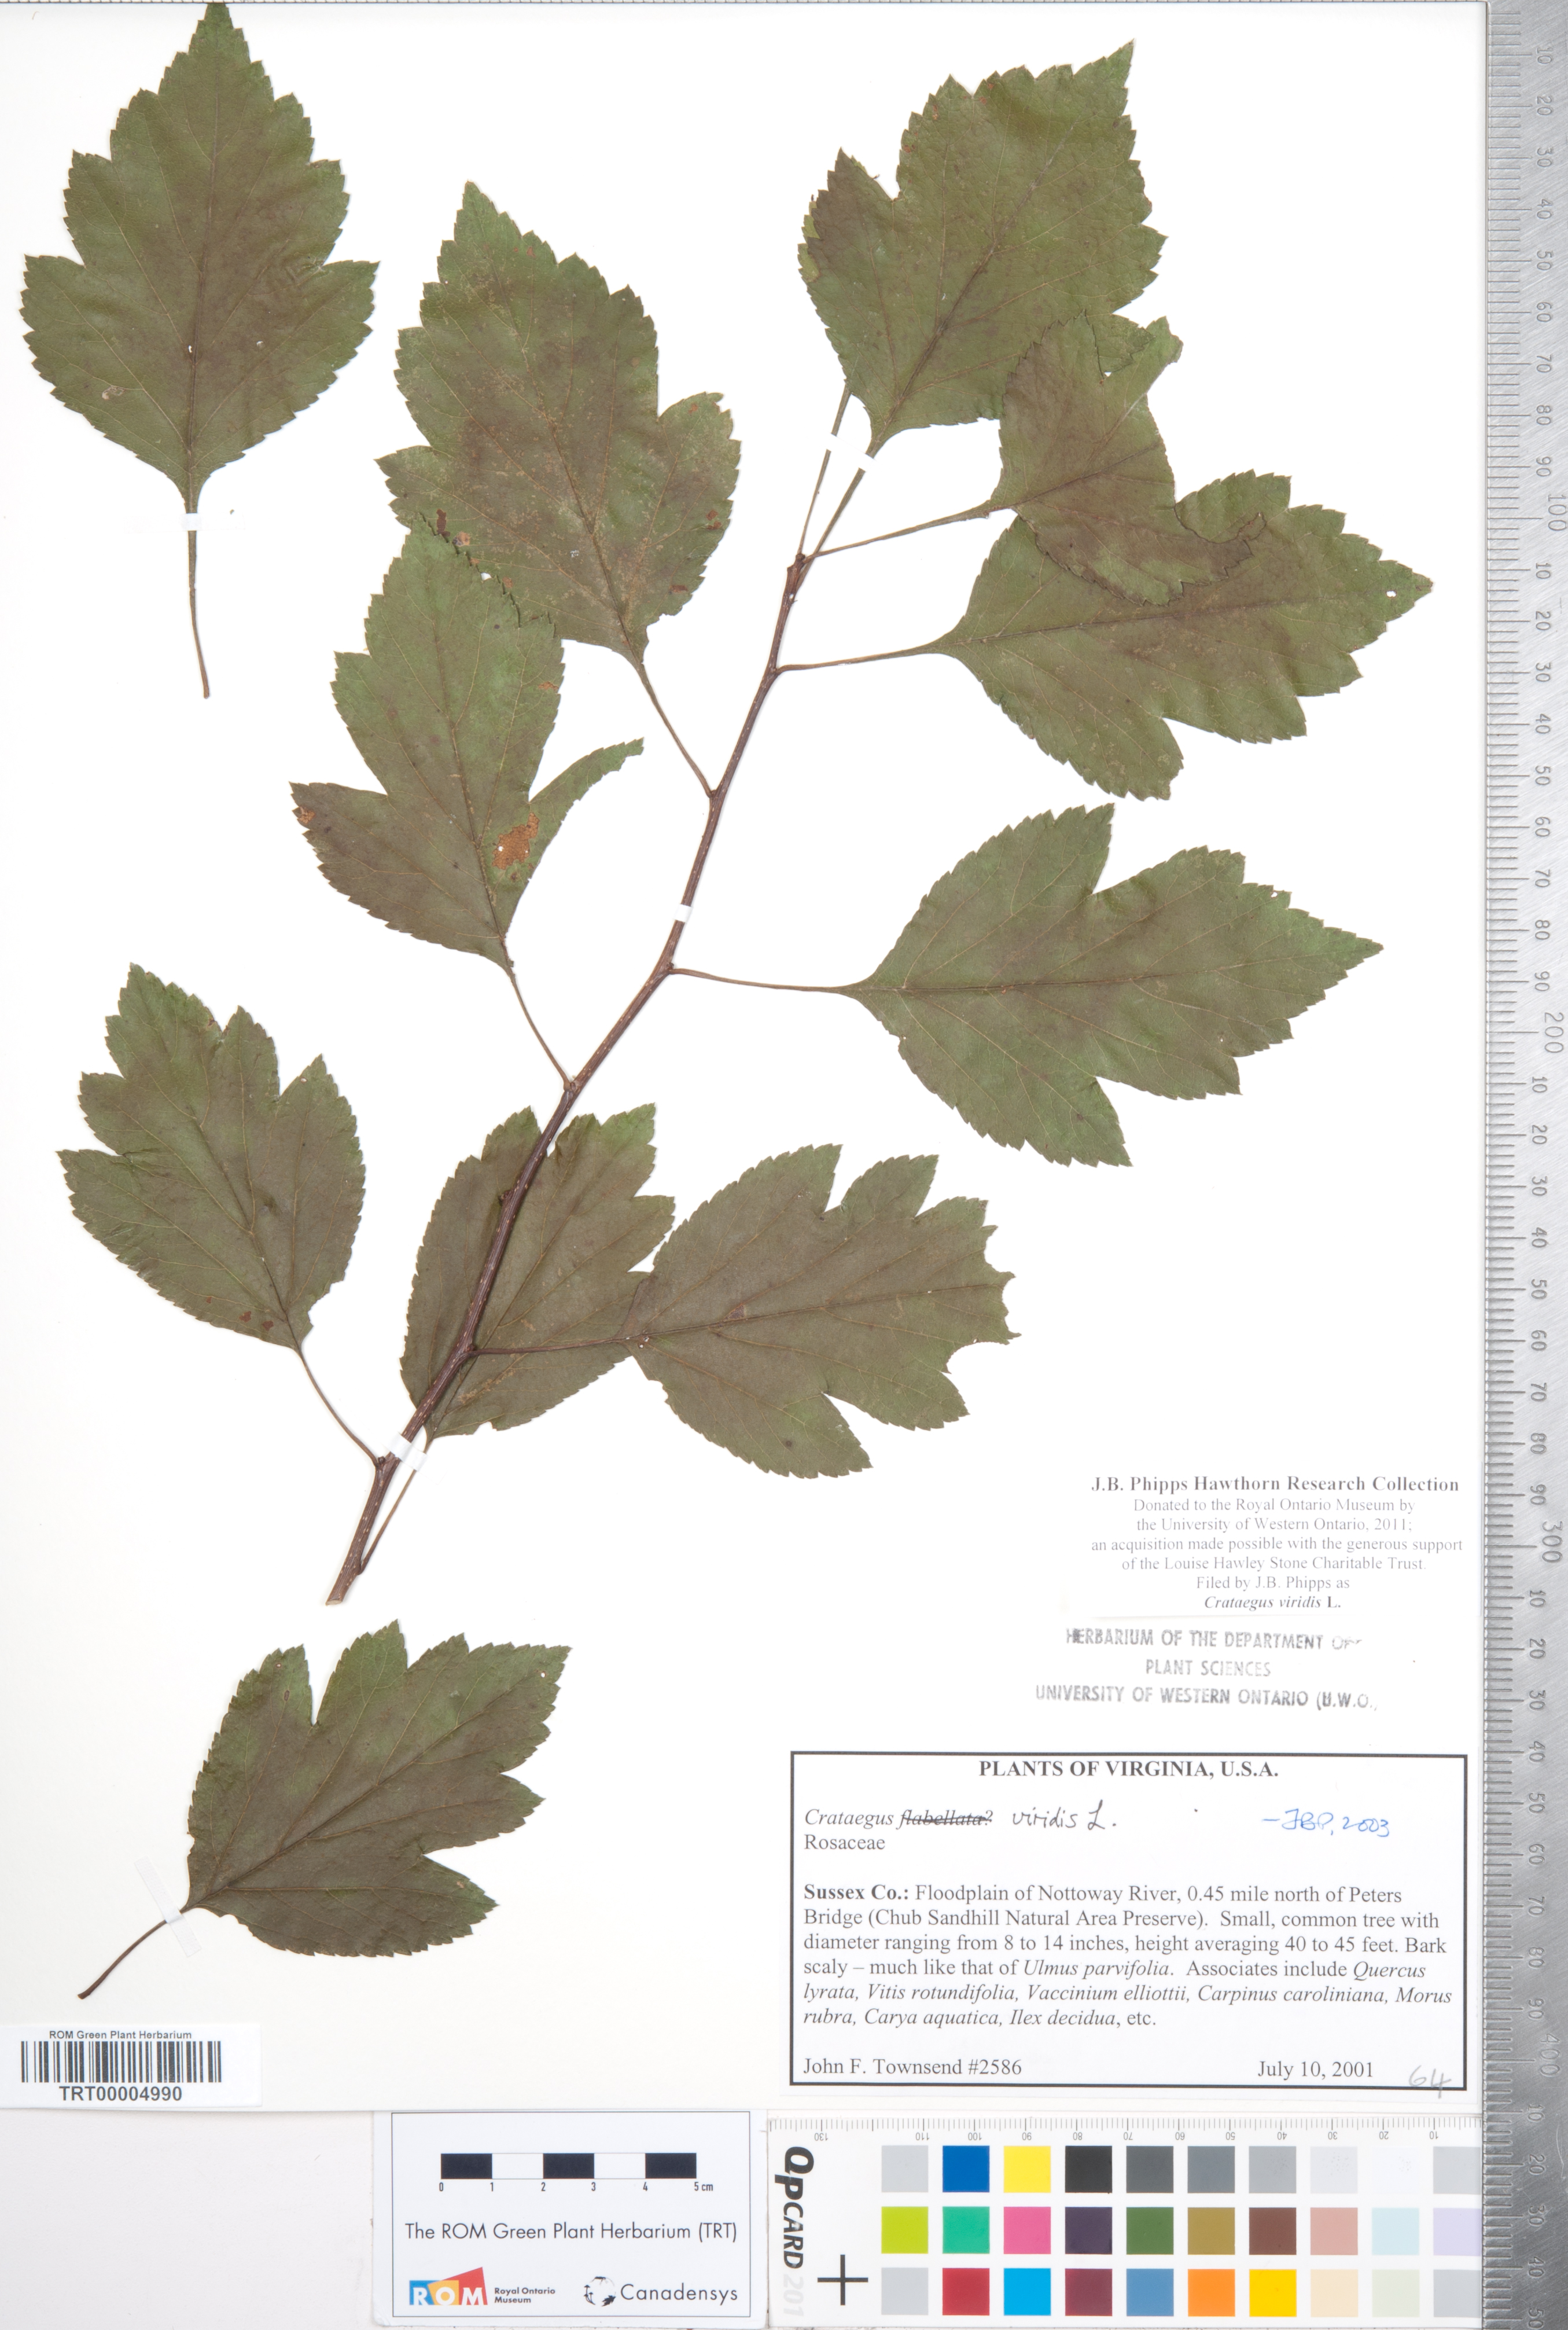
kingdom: Plantae
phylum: Tracheophyta
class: Magnoliopsida
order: Rosales
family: Rosaceae
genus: Crataegus
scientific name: Crataegus viridis
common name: Southernthorn
